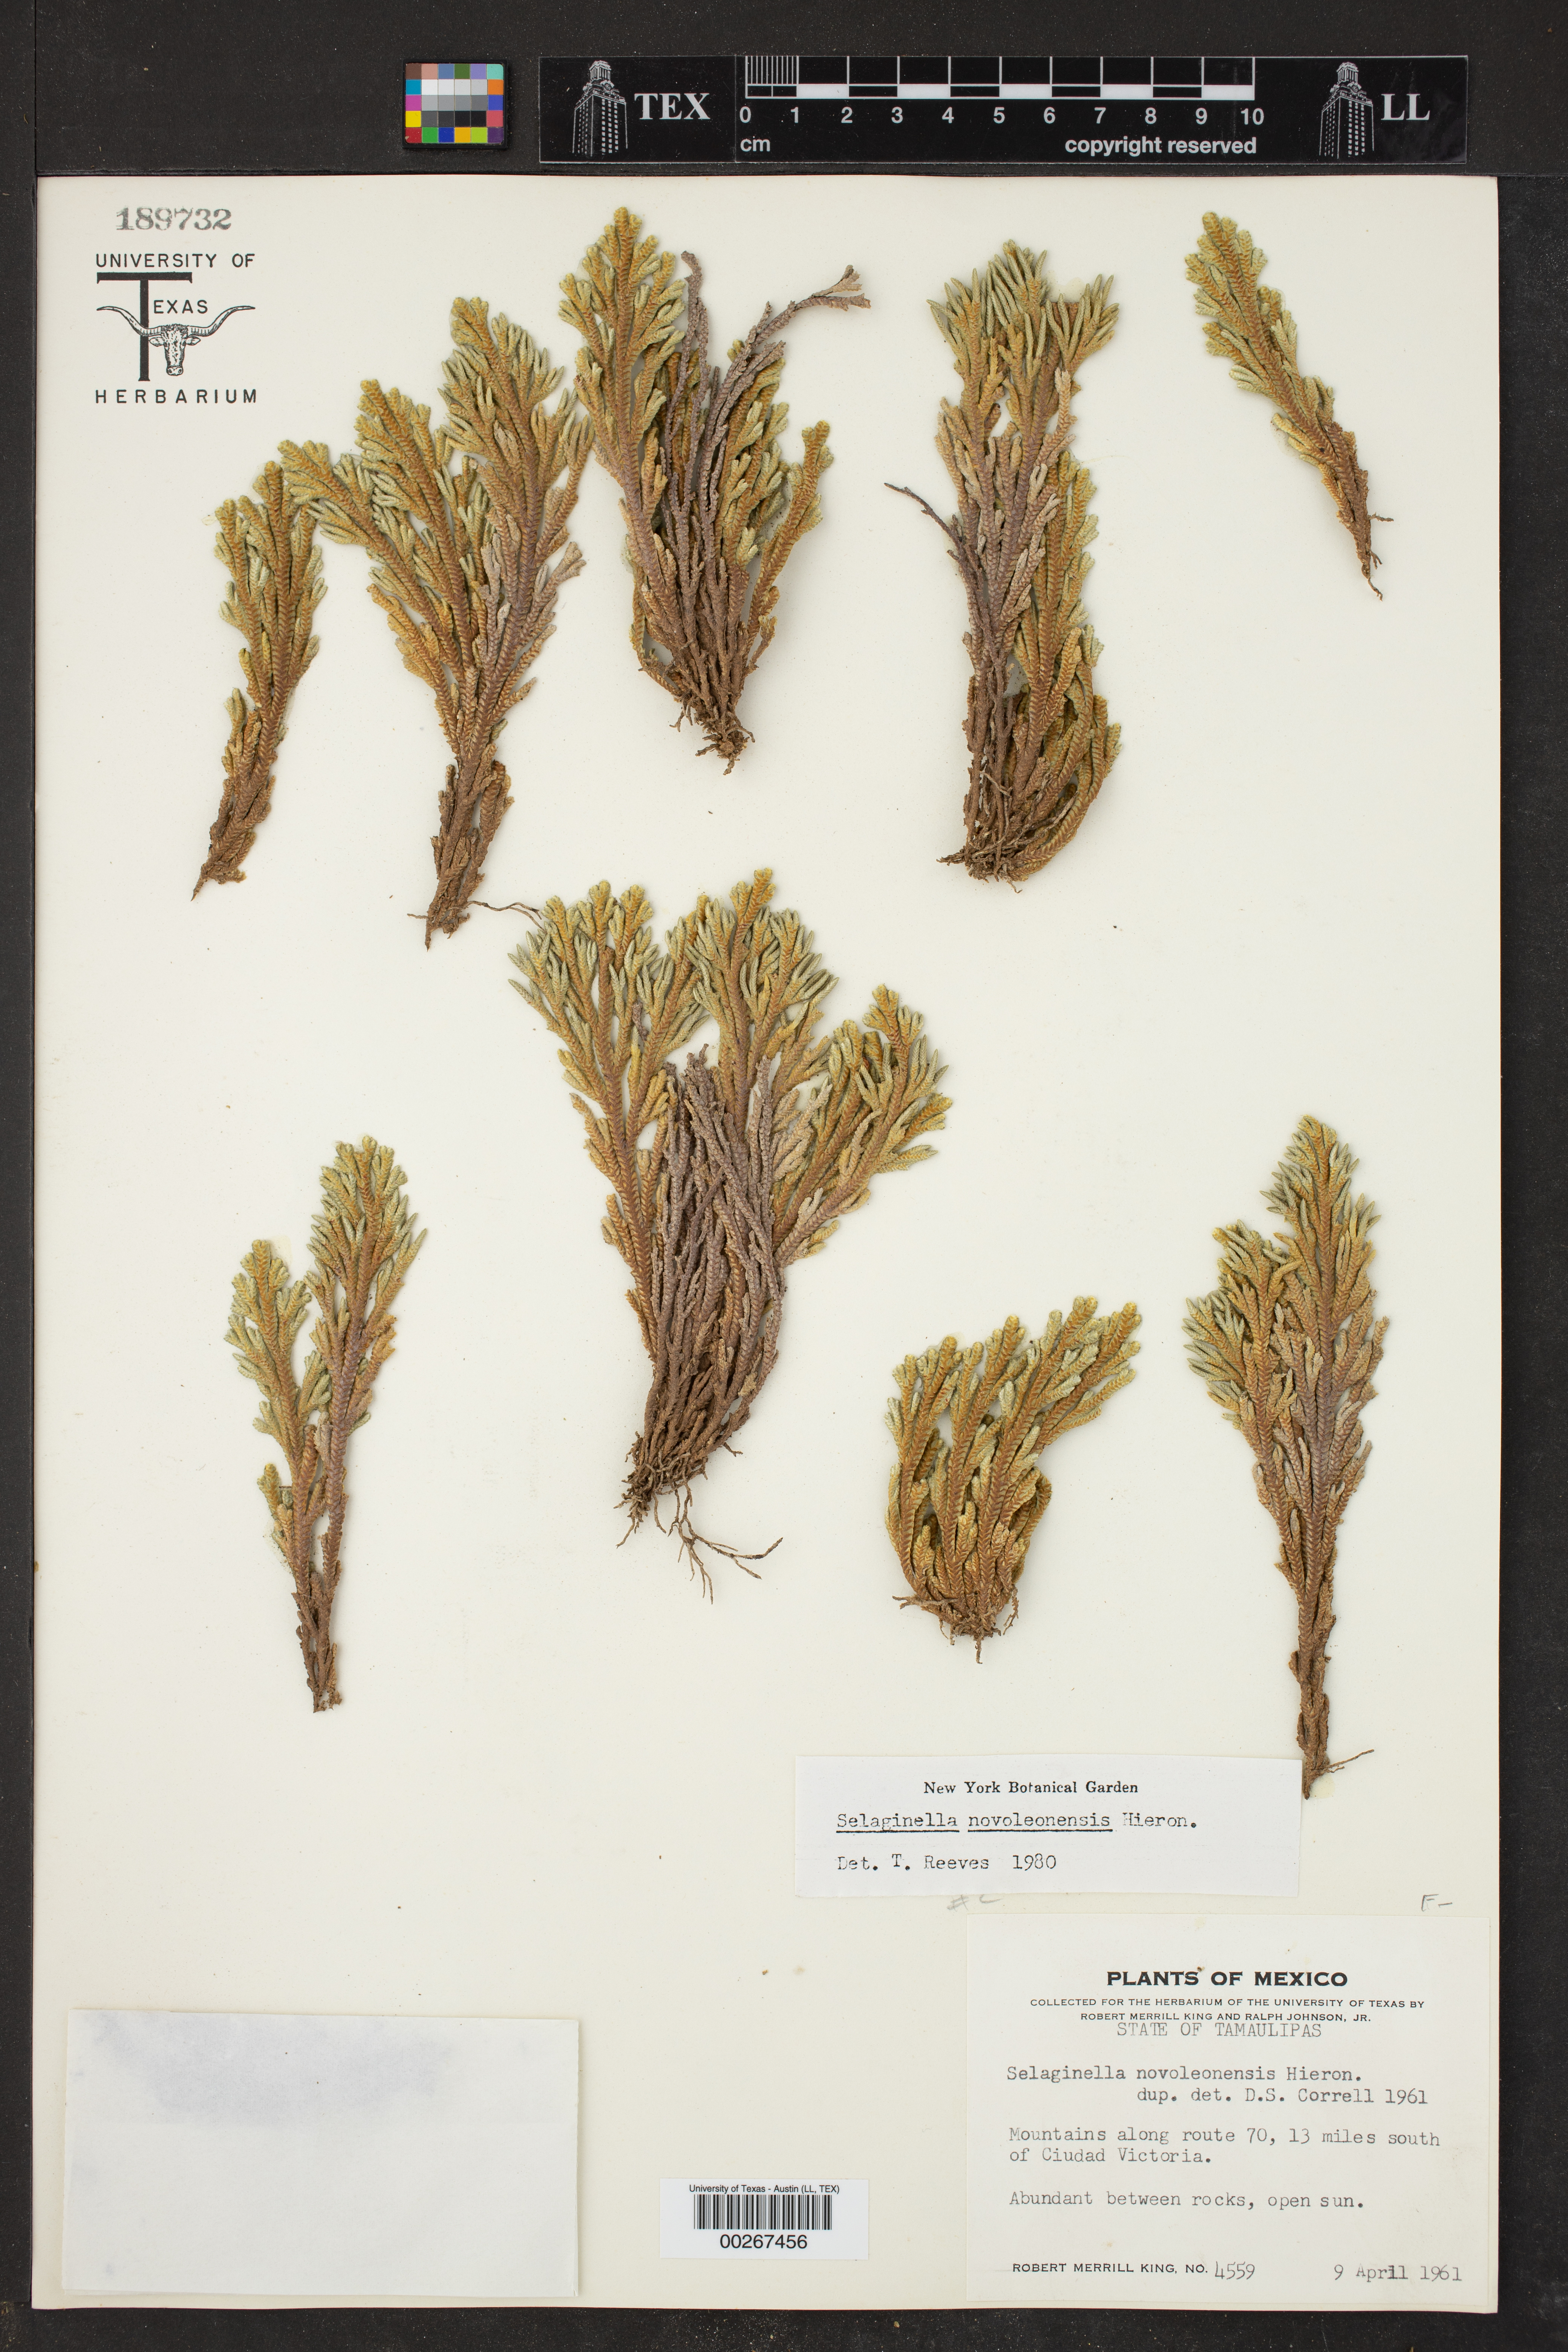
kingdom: Plantae
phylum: Tracheophyta
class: Lycopodiopsida
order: Selaginellales
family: Selaginellaceae
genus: Selaginella
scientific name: Selaginella novoleonensis
